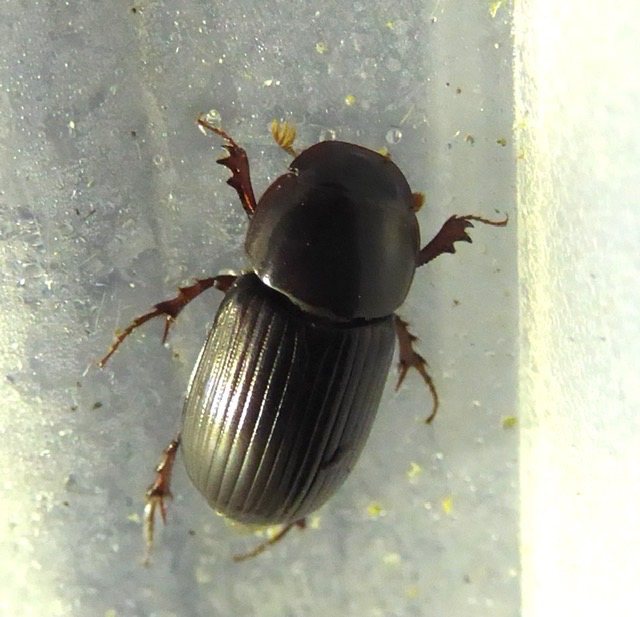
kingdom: Animalia
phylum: Arthropoda
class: Insecta
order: Coleoptera
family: Scarabaeidae
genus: Acrossus
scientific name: Acrossus rufipes
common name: Rødbenet møgbille
